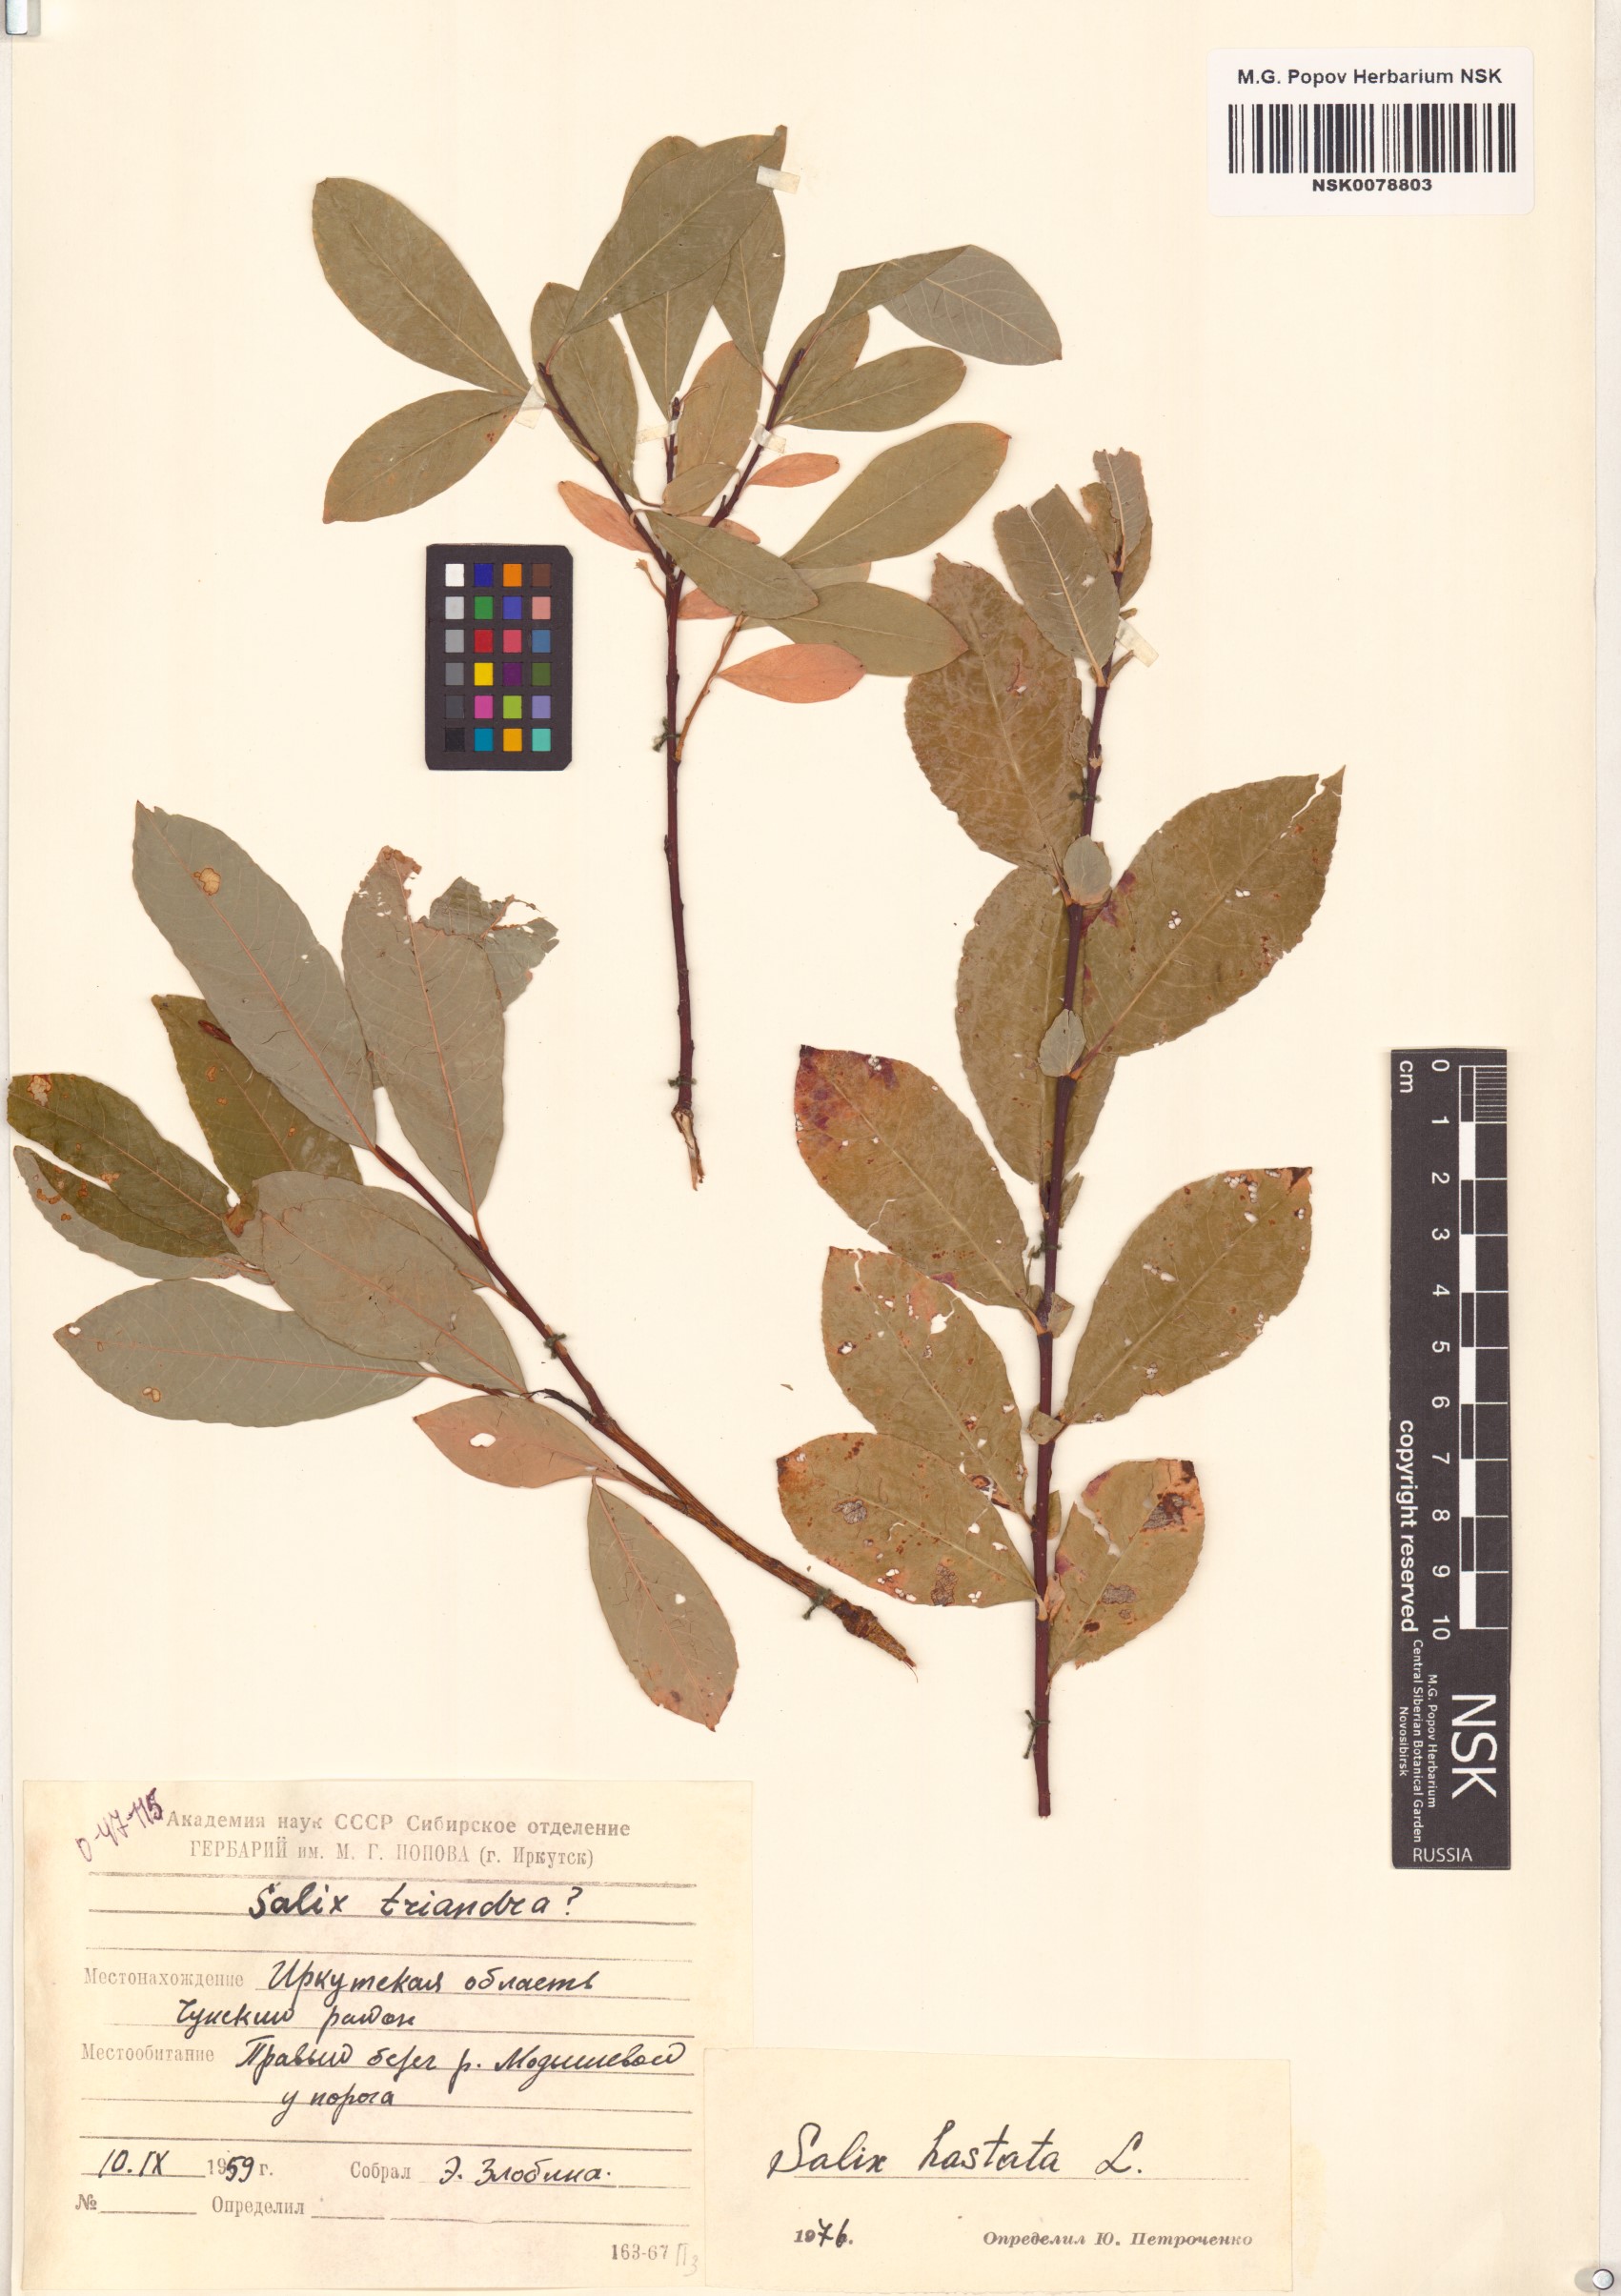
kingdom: Plantae
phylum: Tracheophyta
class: Magnoliopsida
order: Malpighiales
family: Salicaceae
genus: Salix
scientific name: Salix hastata
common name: Halberd willow
